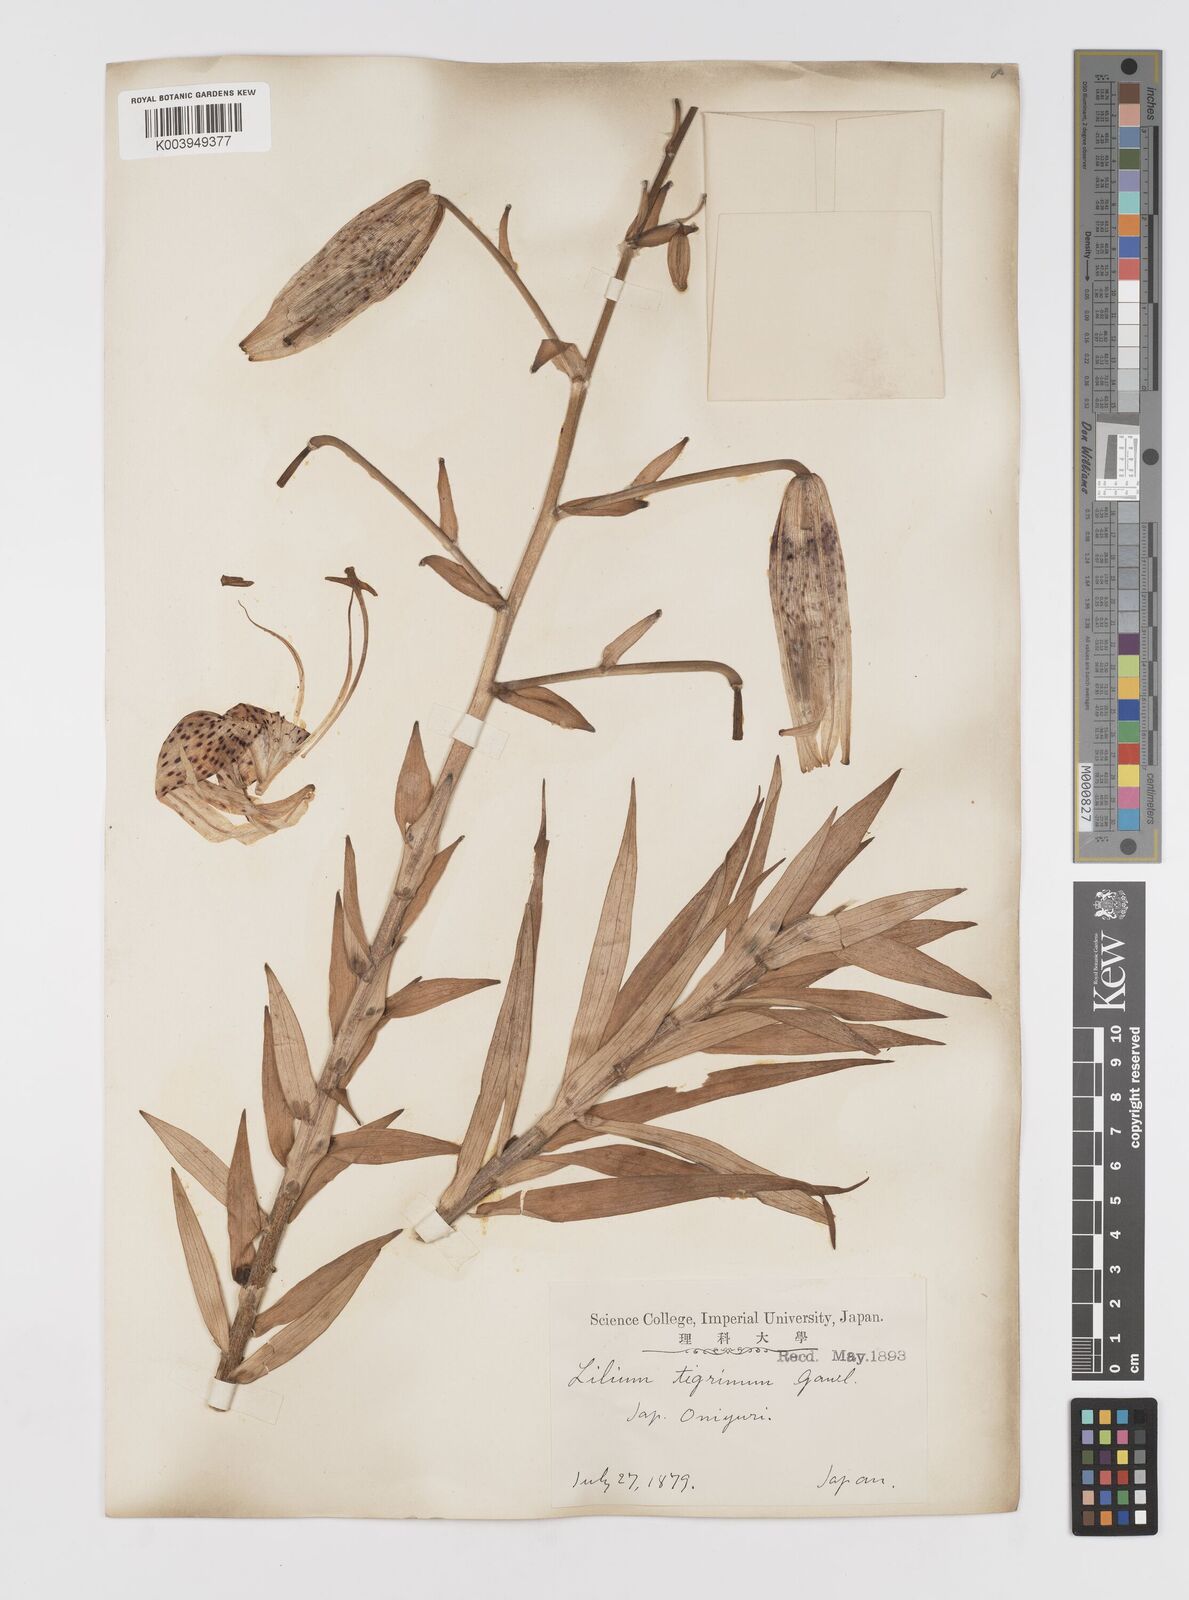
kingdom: Plantae
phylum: Tracheophyta
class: Liliopsida
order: Liliales
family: Liliaceae
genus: Lilium
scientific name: Lilium lancifolium
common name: Tiger lily
